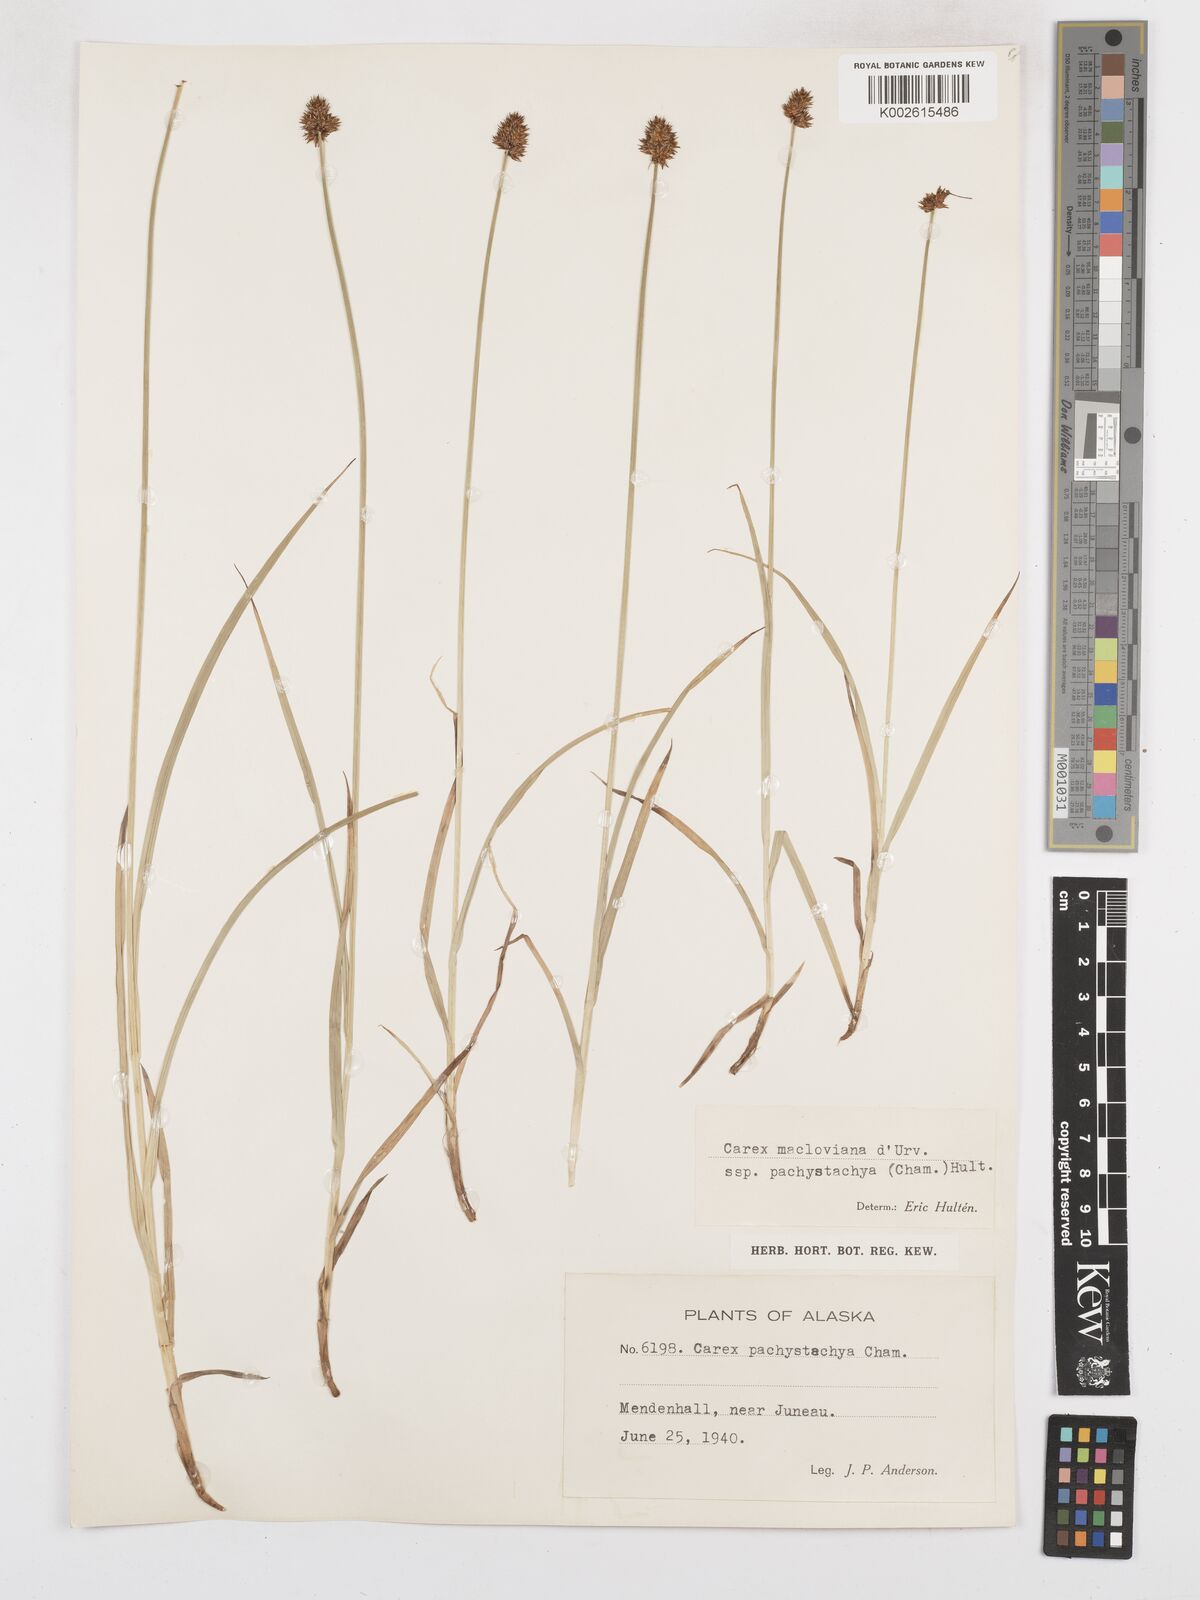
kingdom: Plantae
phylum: Tracheophyta
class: Liliopsida
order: Poales
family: Cyperaceae
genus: Carex
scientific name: Carex macloviana
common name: Falkland island sedge
